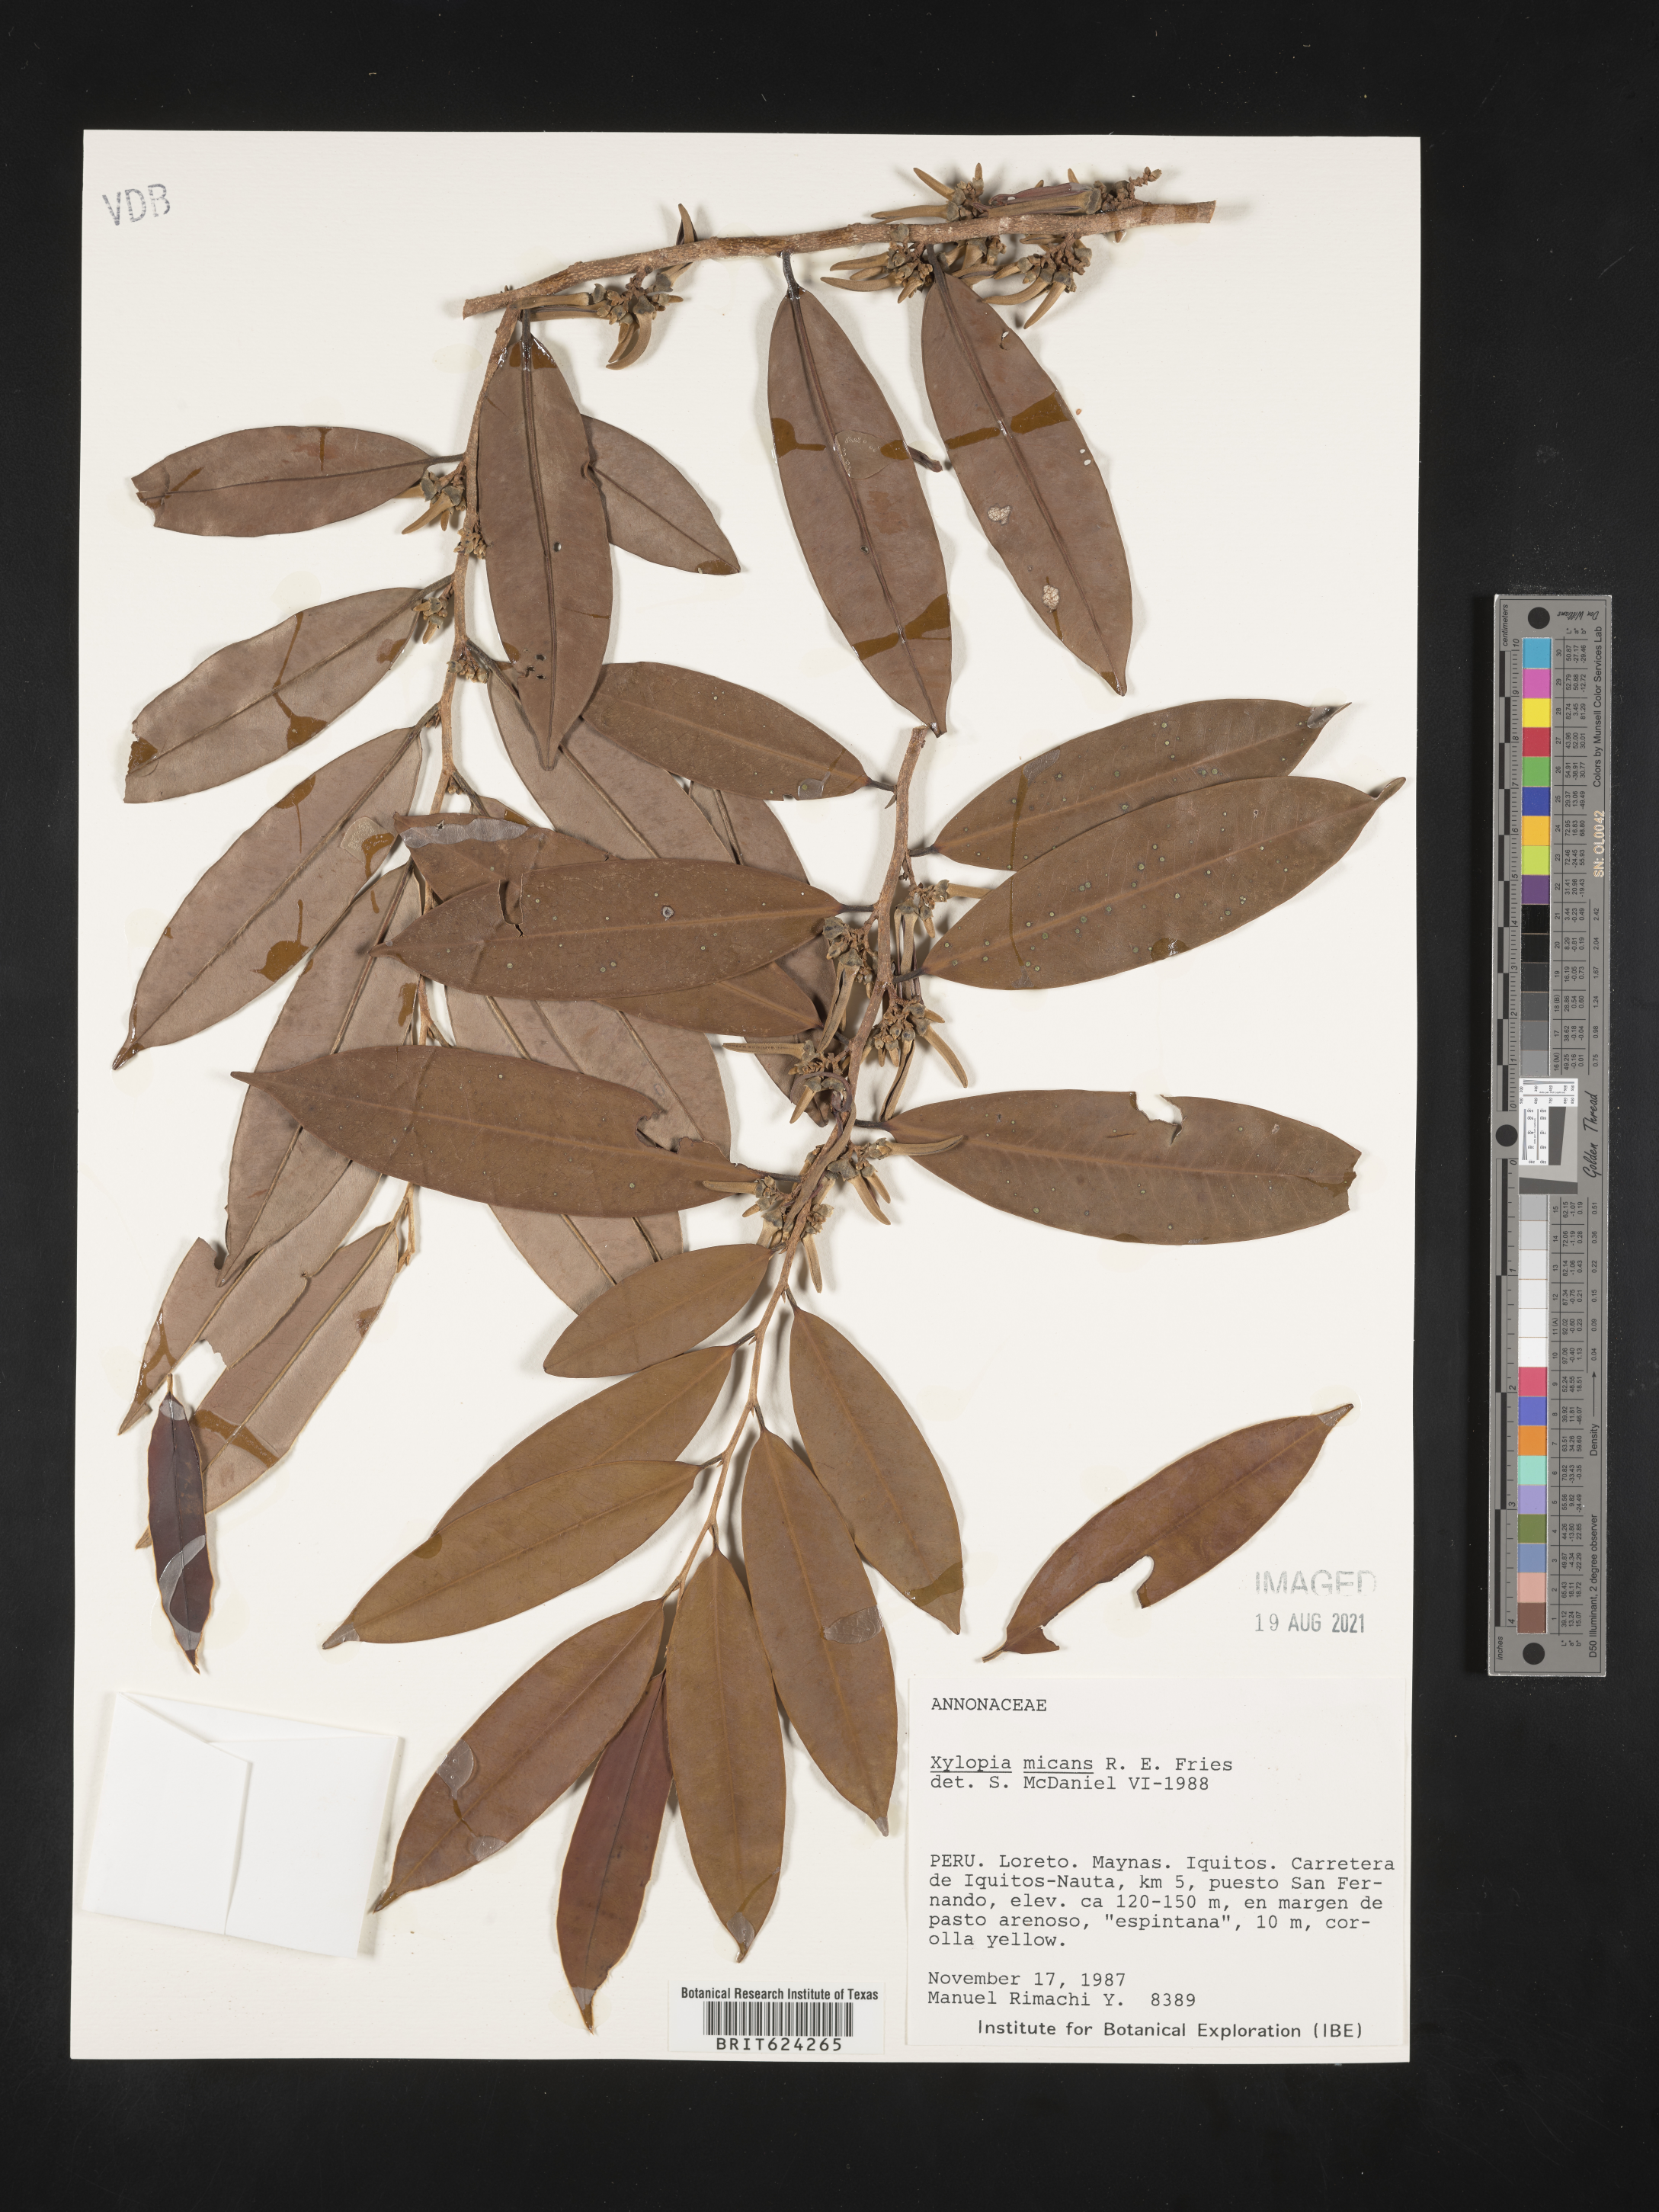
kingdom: Plantae
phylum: Tracheophyta
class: Magnoliopsida
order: Magnoliales
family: Annonaceae
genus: Xylopia
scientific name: Xylopia micans
